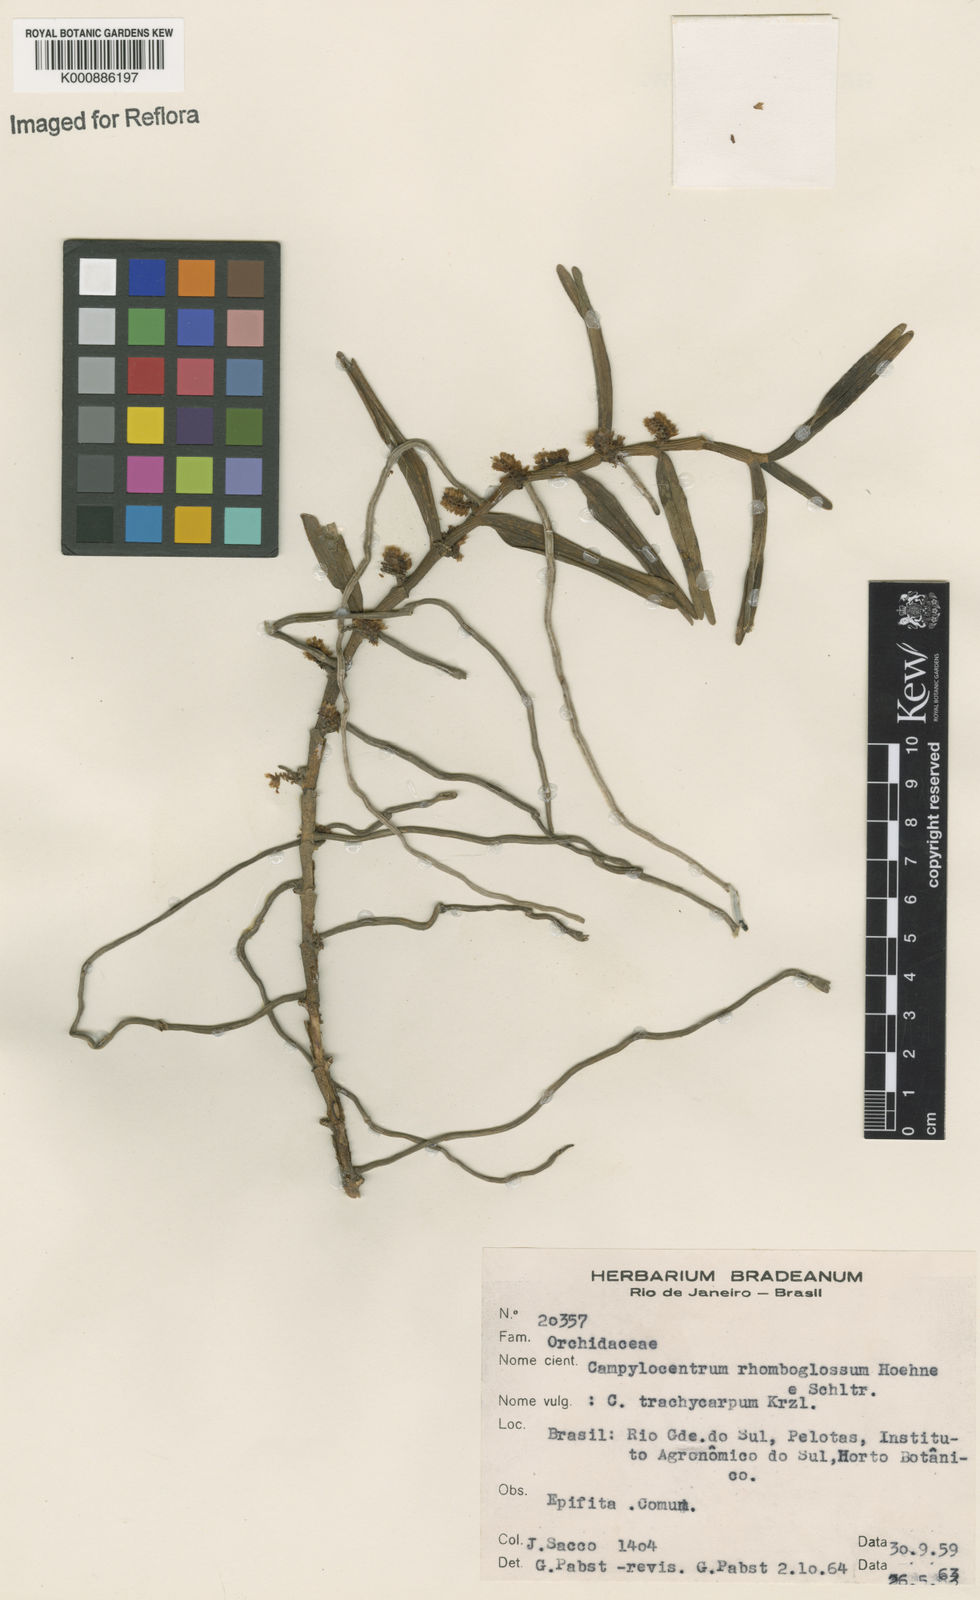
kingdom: Plantae
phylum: Tracheophyta
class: Liliopsida
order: Asparagales
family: Orchidaceae
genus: Campylocentrum
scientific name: Campylocentrum aromaticum
